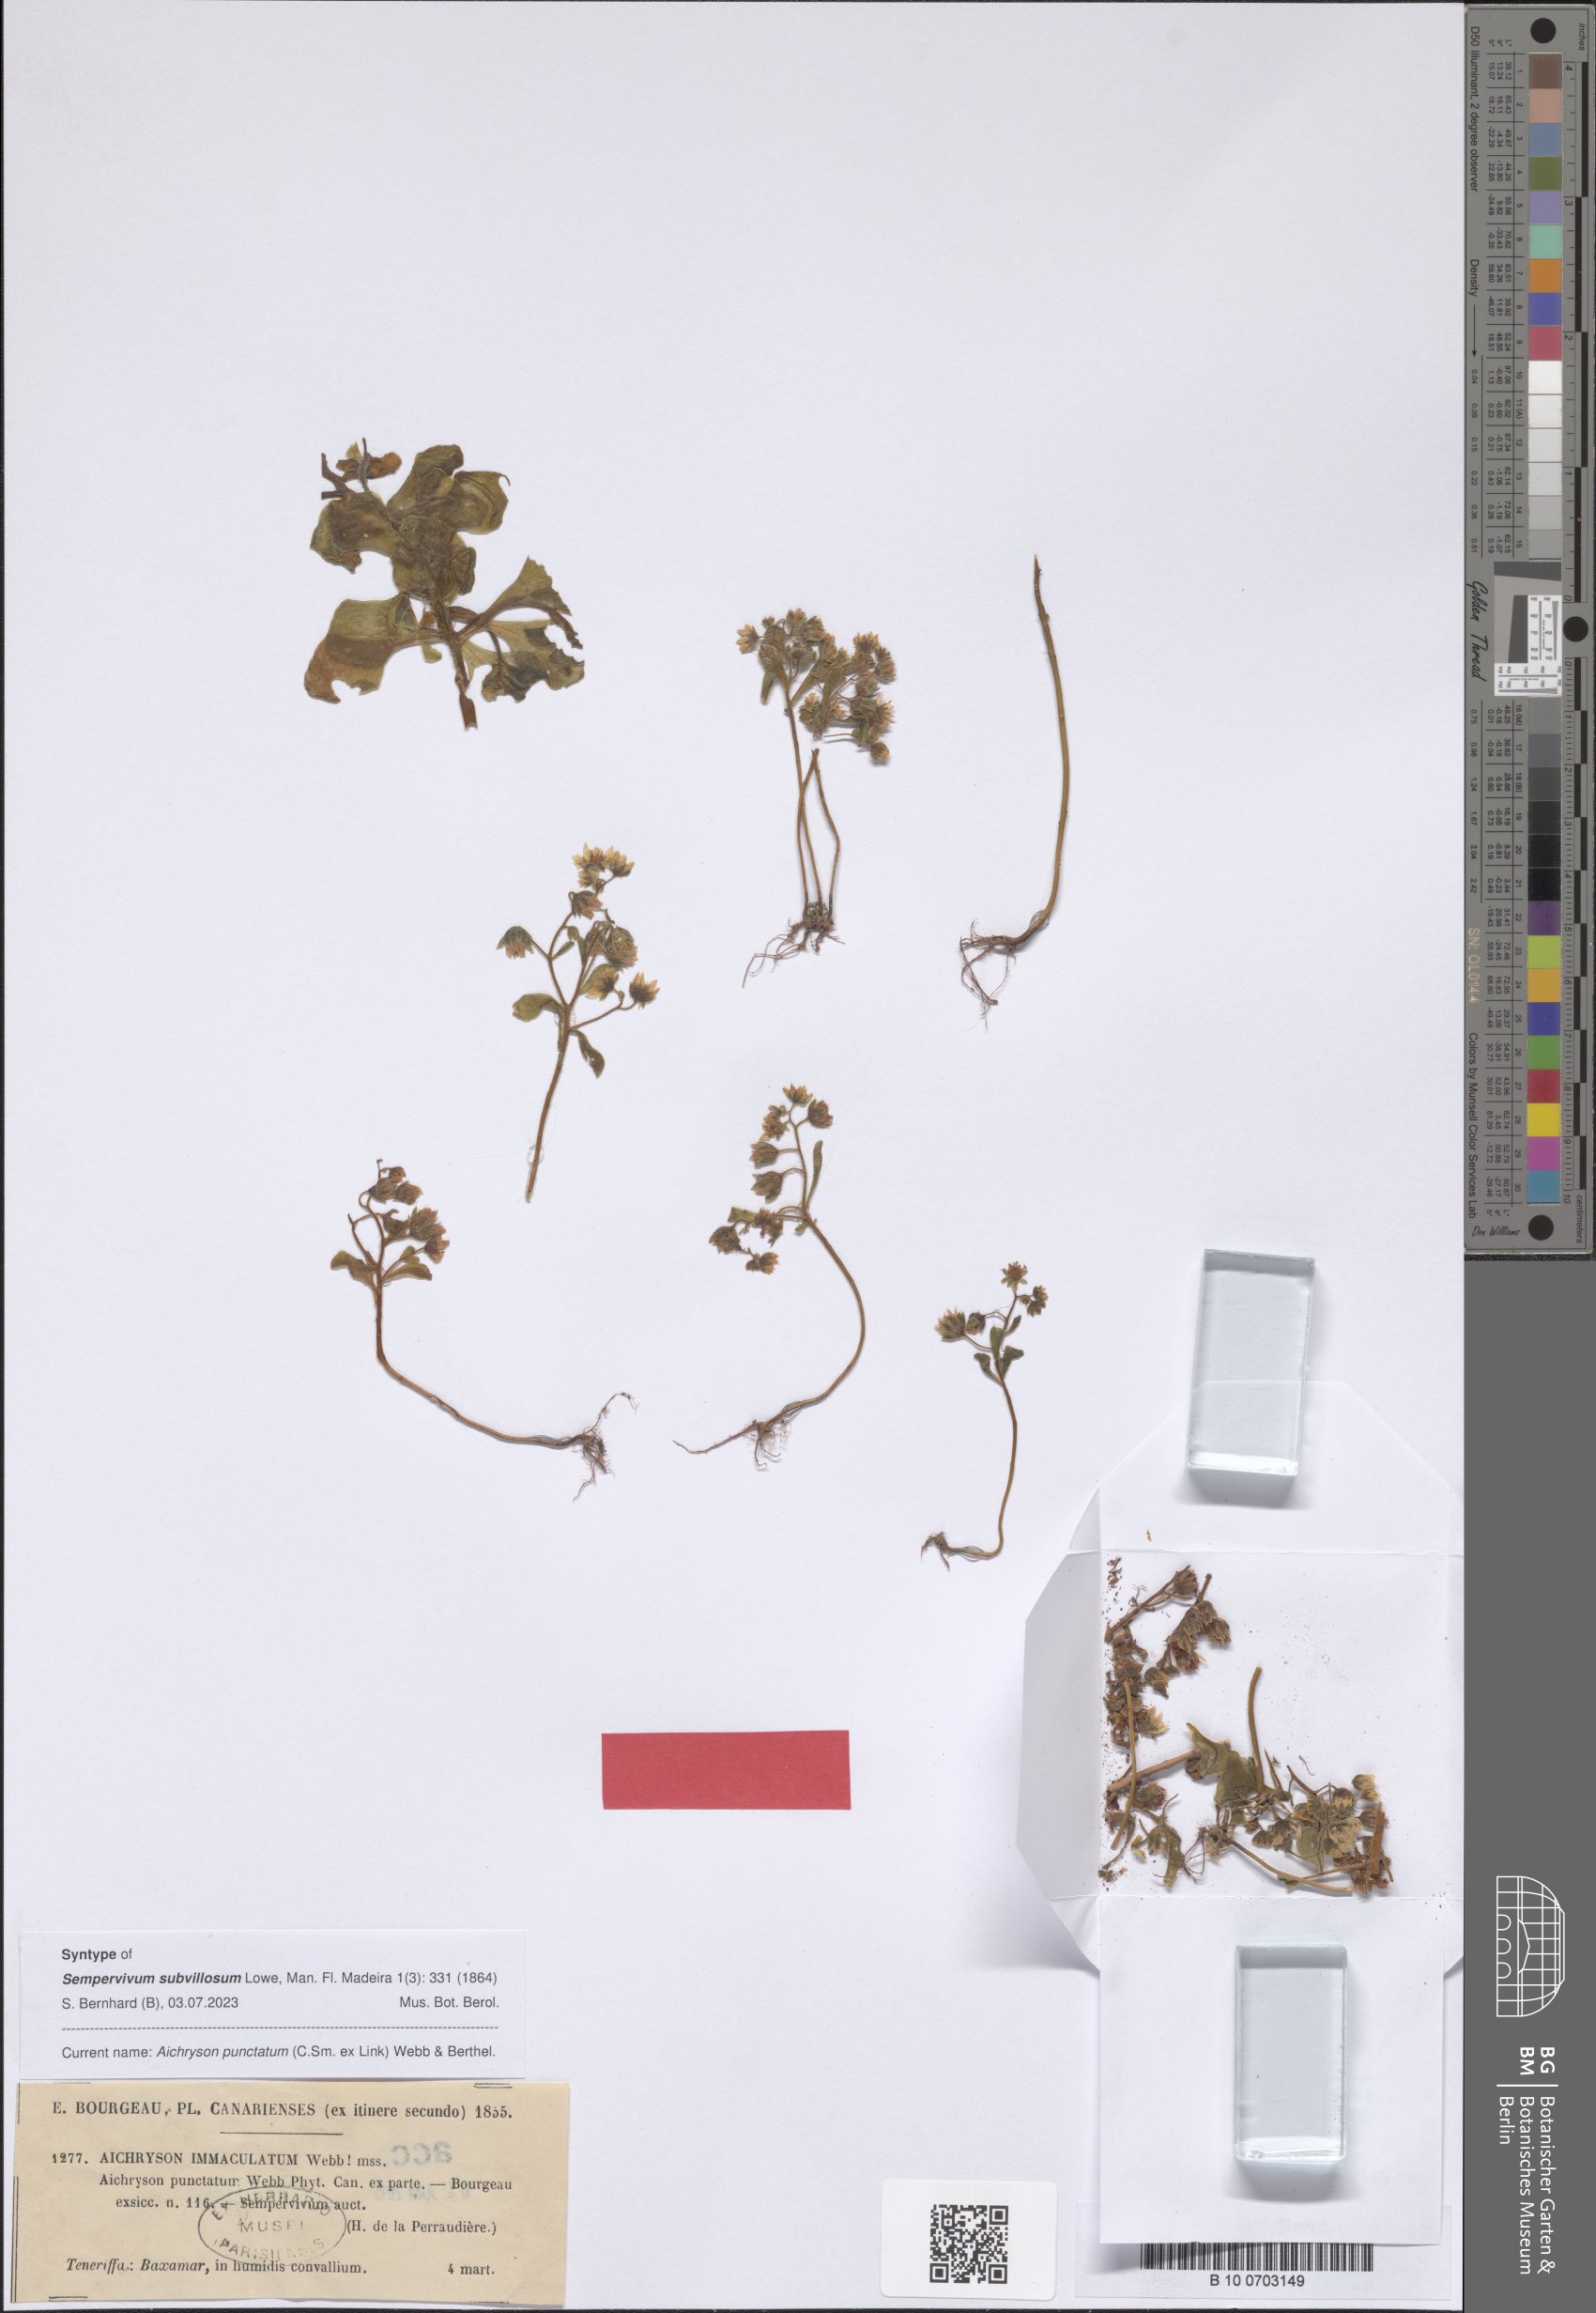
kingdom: Plantae
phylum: Tracheophyta
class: Magnoliopsida
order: Saxifragales
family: Crassulaceae
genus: Aichryson
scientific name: Aichryson punctatum
